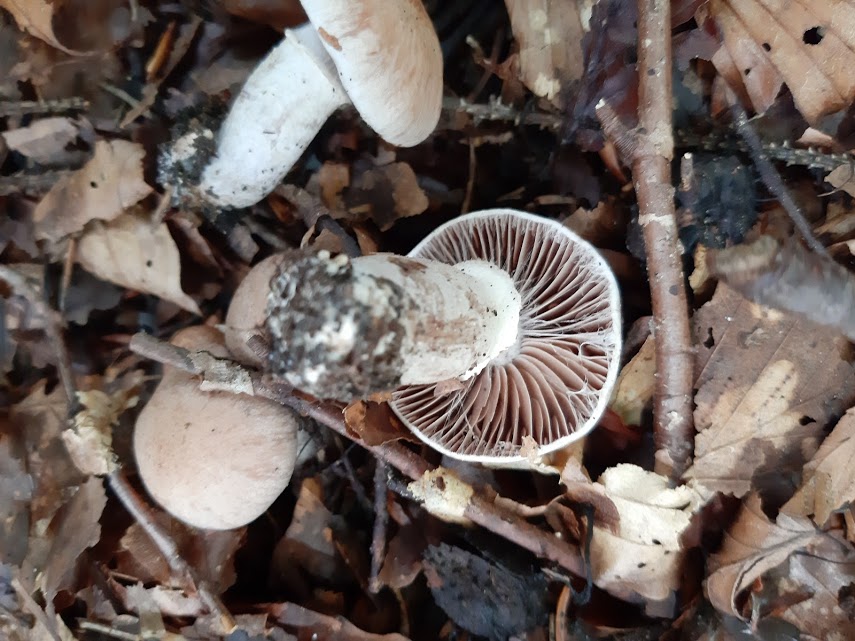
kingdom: Fungi
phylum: Basidiomycota
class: Agaricomycetes
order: Agaricales
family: Cortinariaceae
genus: Cortinarius
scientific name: Cortinarius torvus
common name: champignonagtig slørhat
